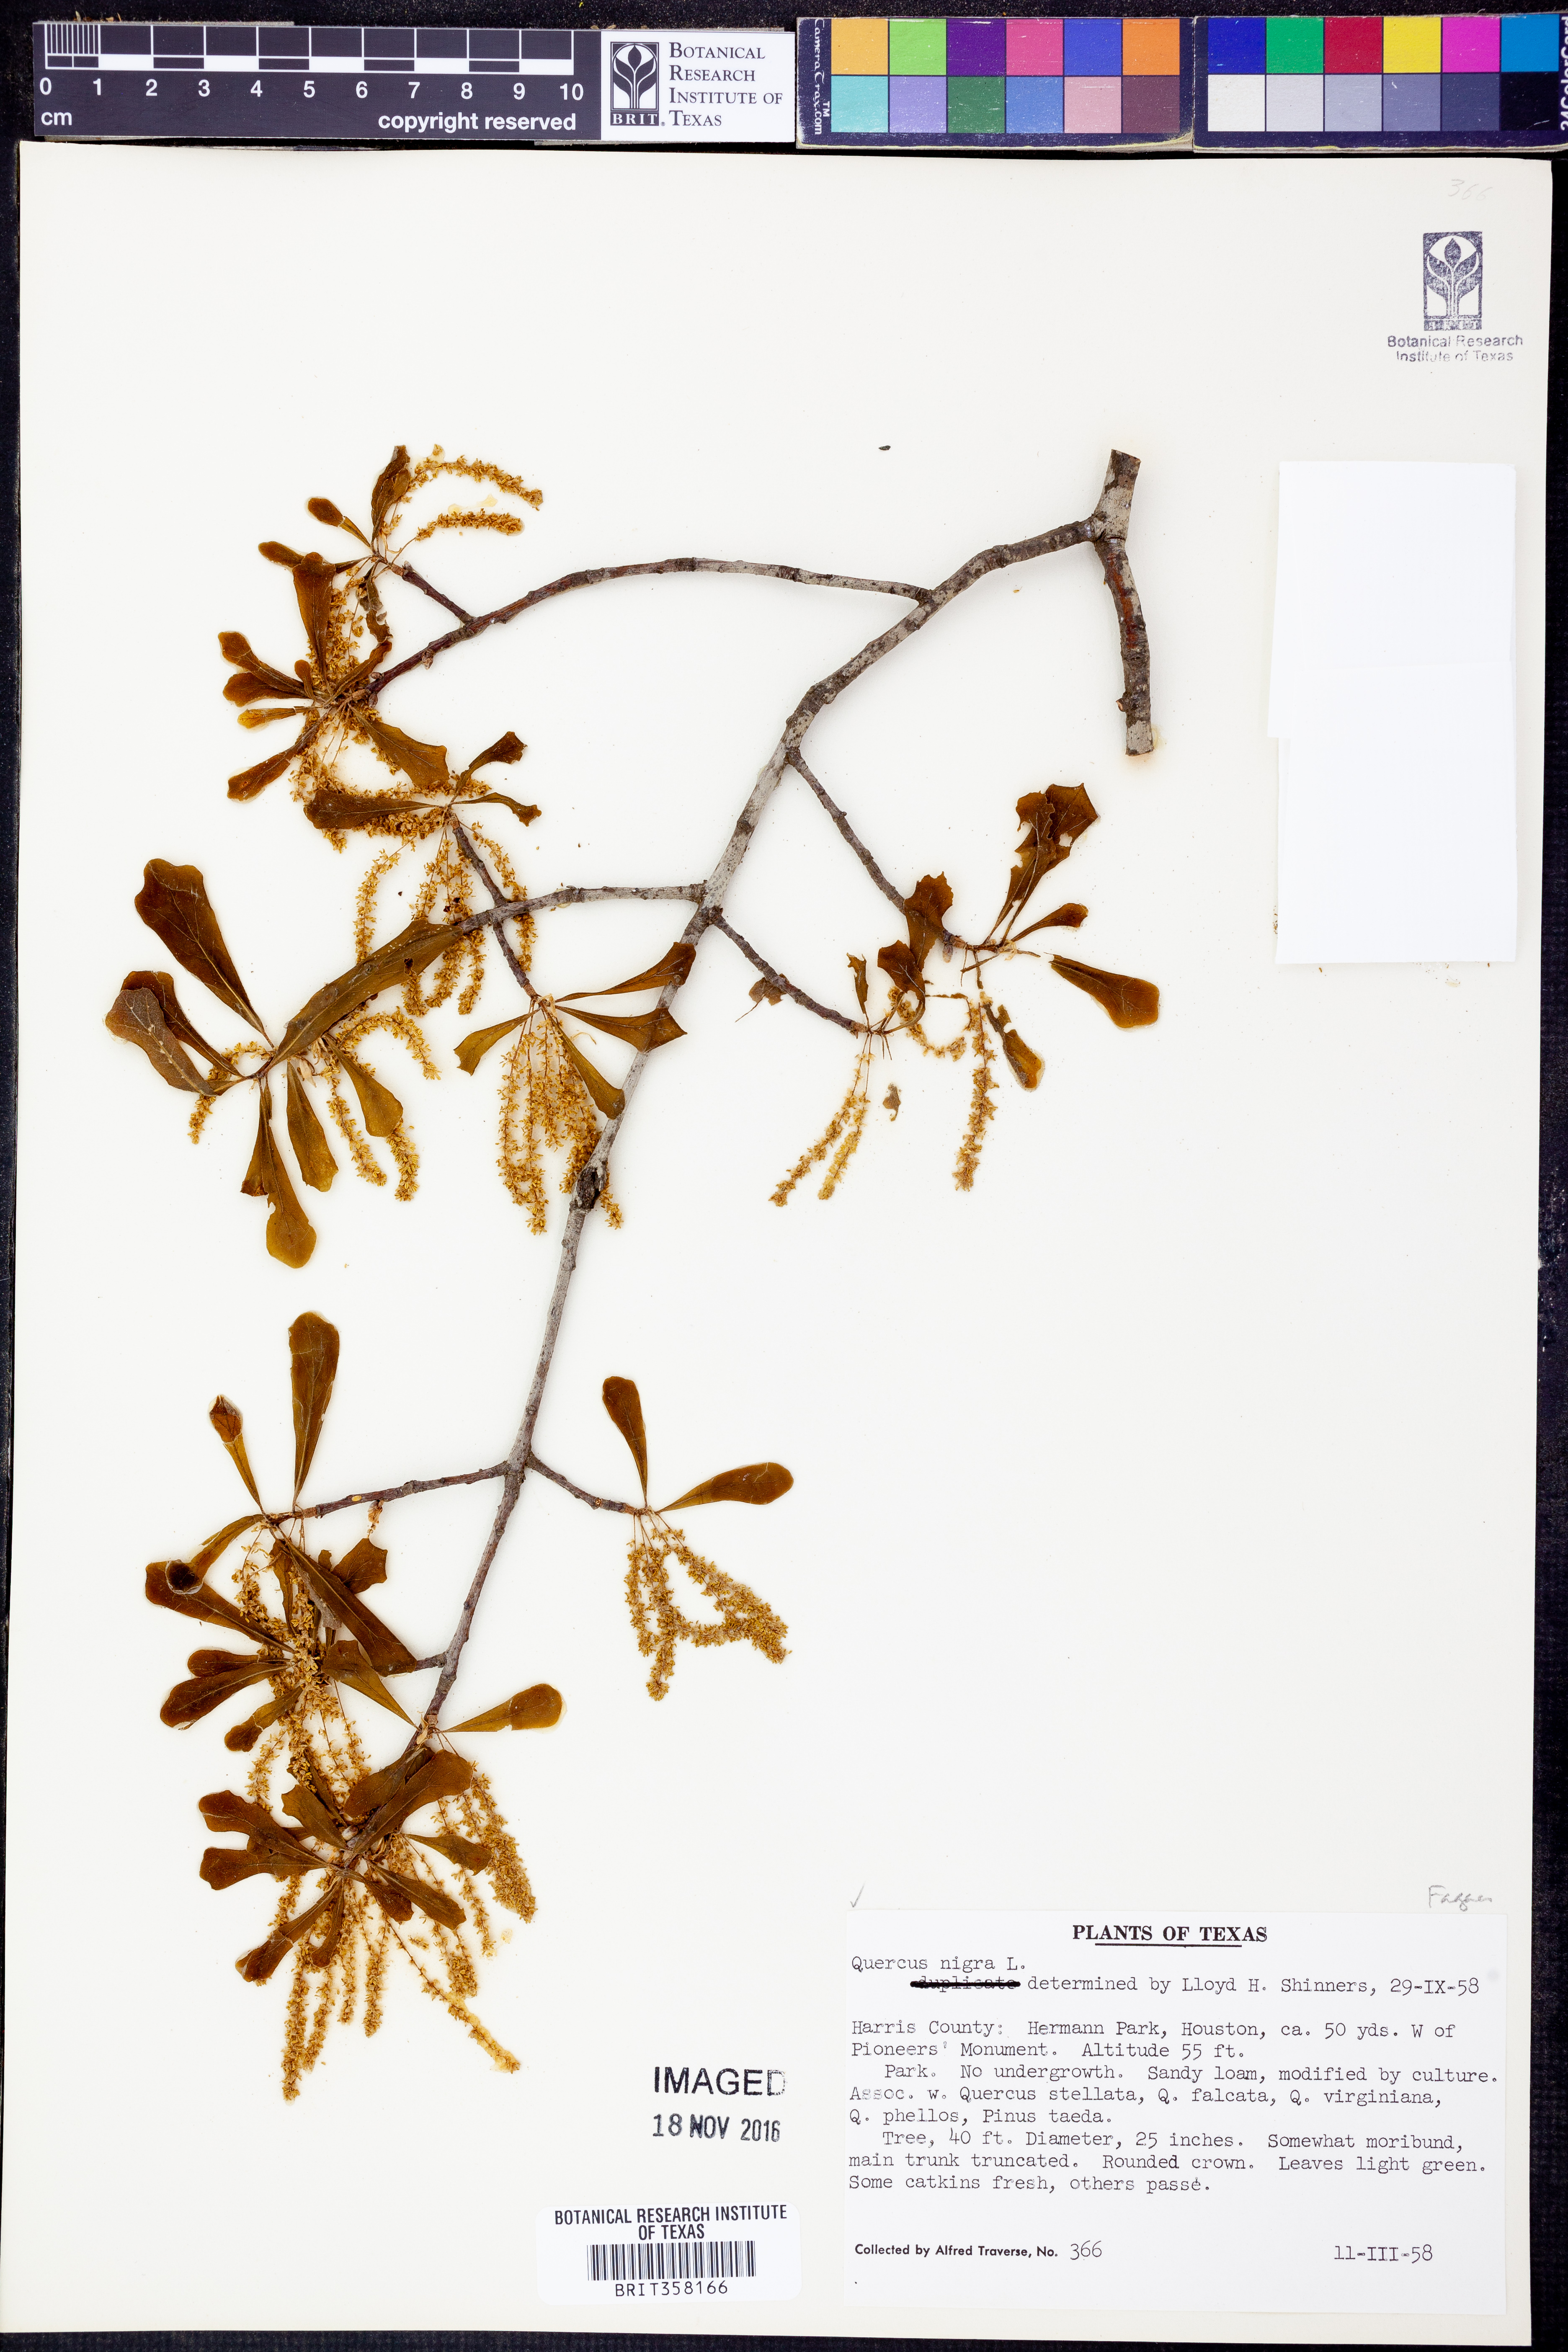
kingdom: Plantae
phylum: Tracheophyta
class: Magnoliopsida
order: Fagales
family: Fagaceae
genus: Quercus
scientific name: Quercus nigra
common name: Water oak
